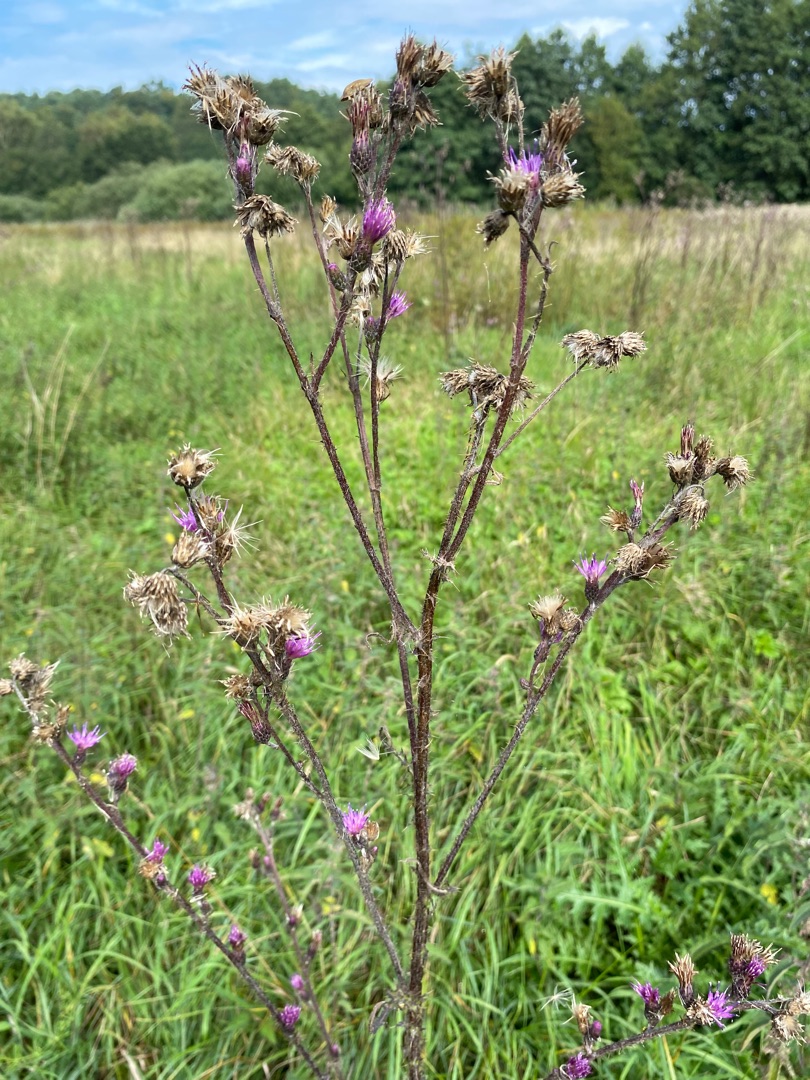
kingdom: Plantae
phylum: Tracheophyta
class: Magnoliopsida
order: Asterales
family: Asteraceae
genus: Cirsium
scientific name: Cirsium palustre
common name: Kær-tidsel
